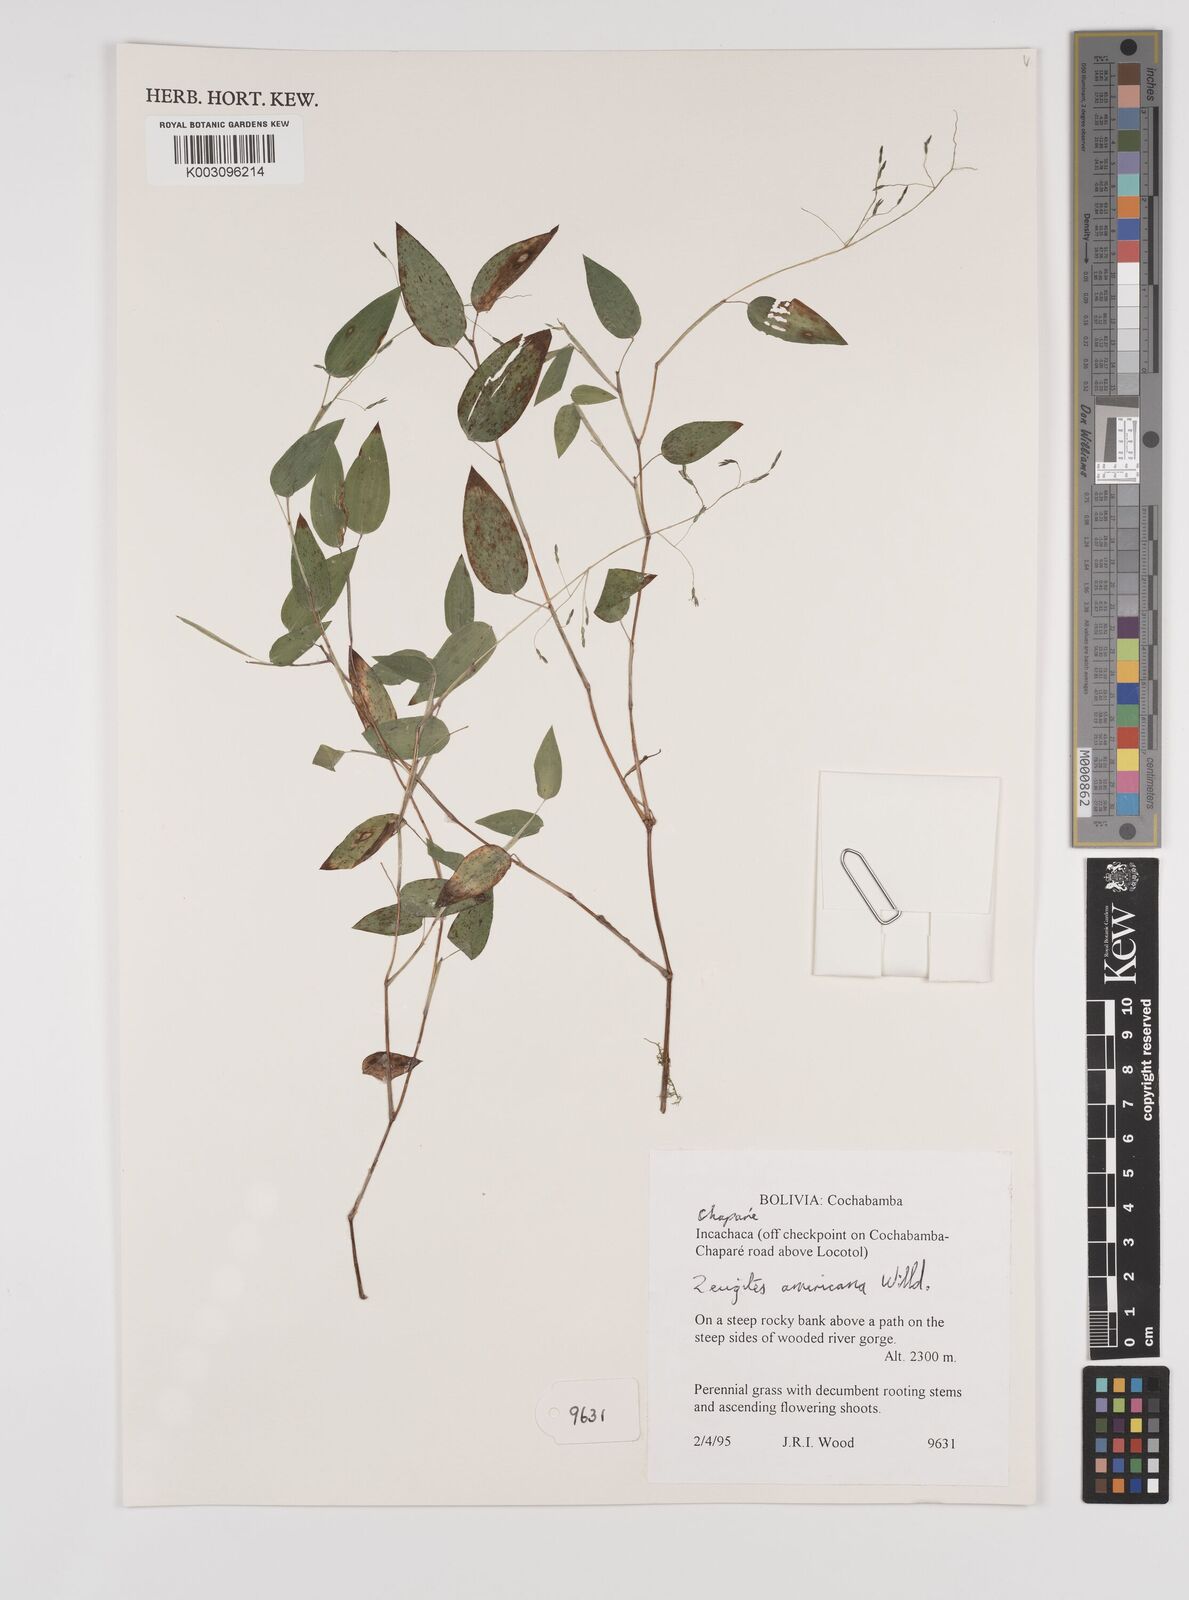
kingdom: Plantae
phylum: Tracheophyta
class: Liliopsida
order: Poales
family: Poaceae
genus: Zeugites
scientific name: Zeugites americanus
